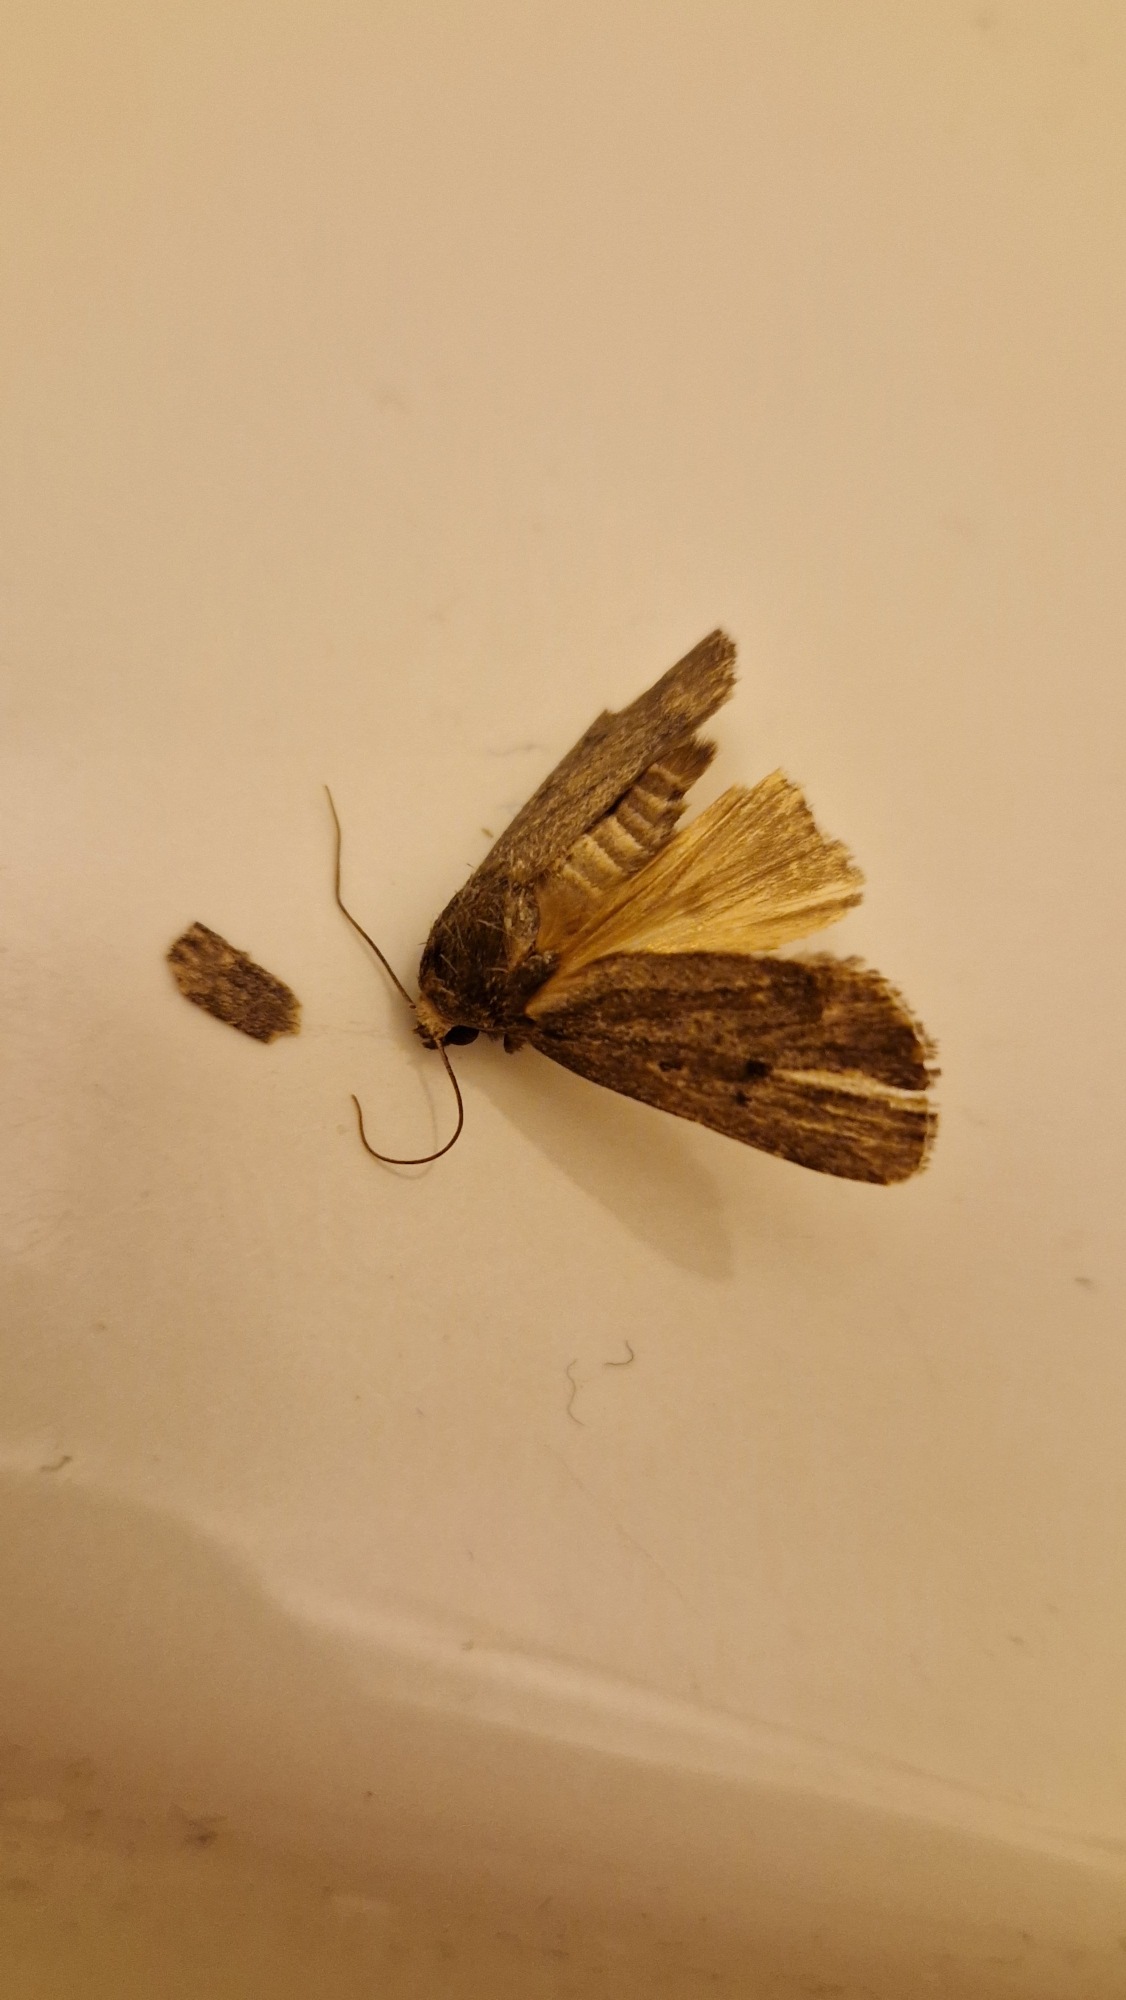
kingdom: Animalia
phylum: Arthropoda
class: Insecta
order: Lepidoptera
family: Noctuidae
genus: Amphipyra
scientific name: Amphipyra tragopoginis
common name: Blyantsugle
